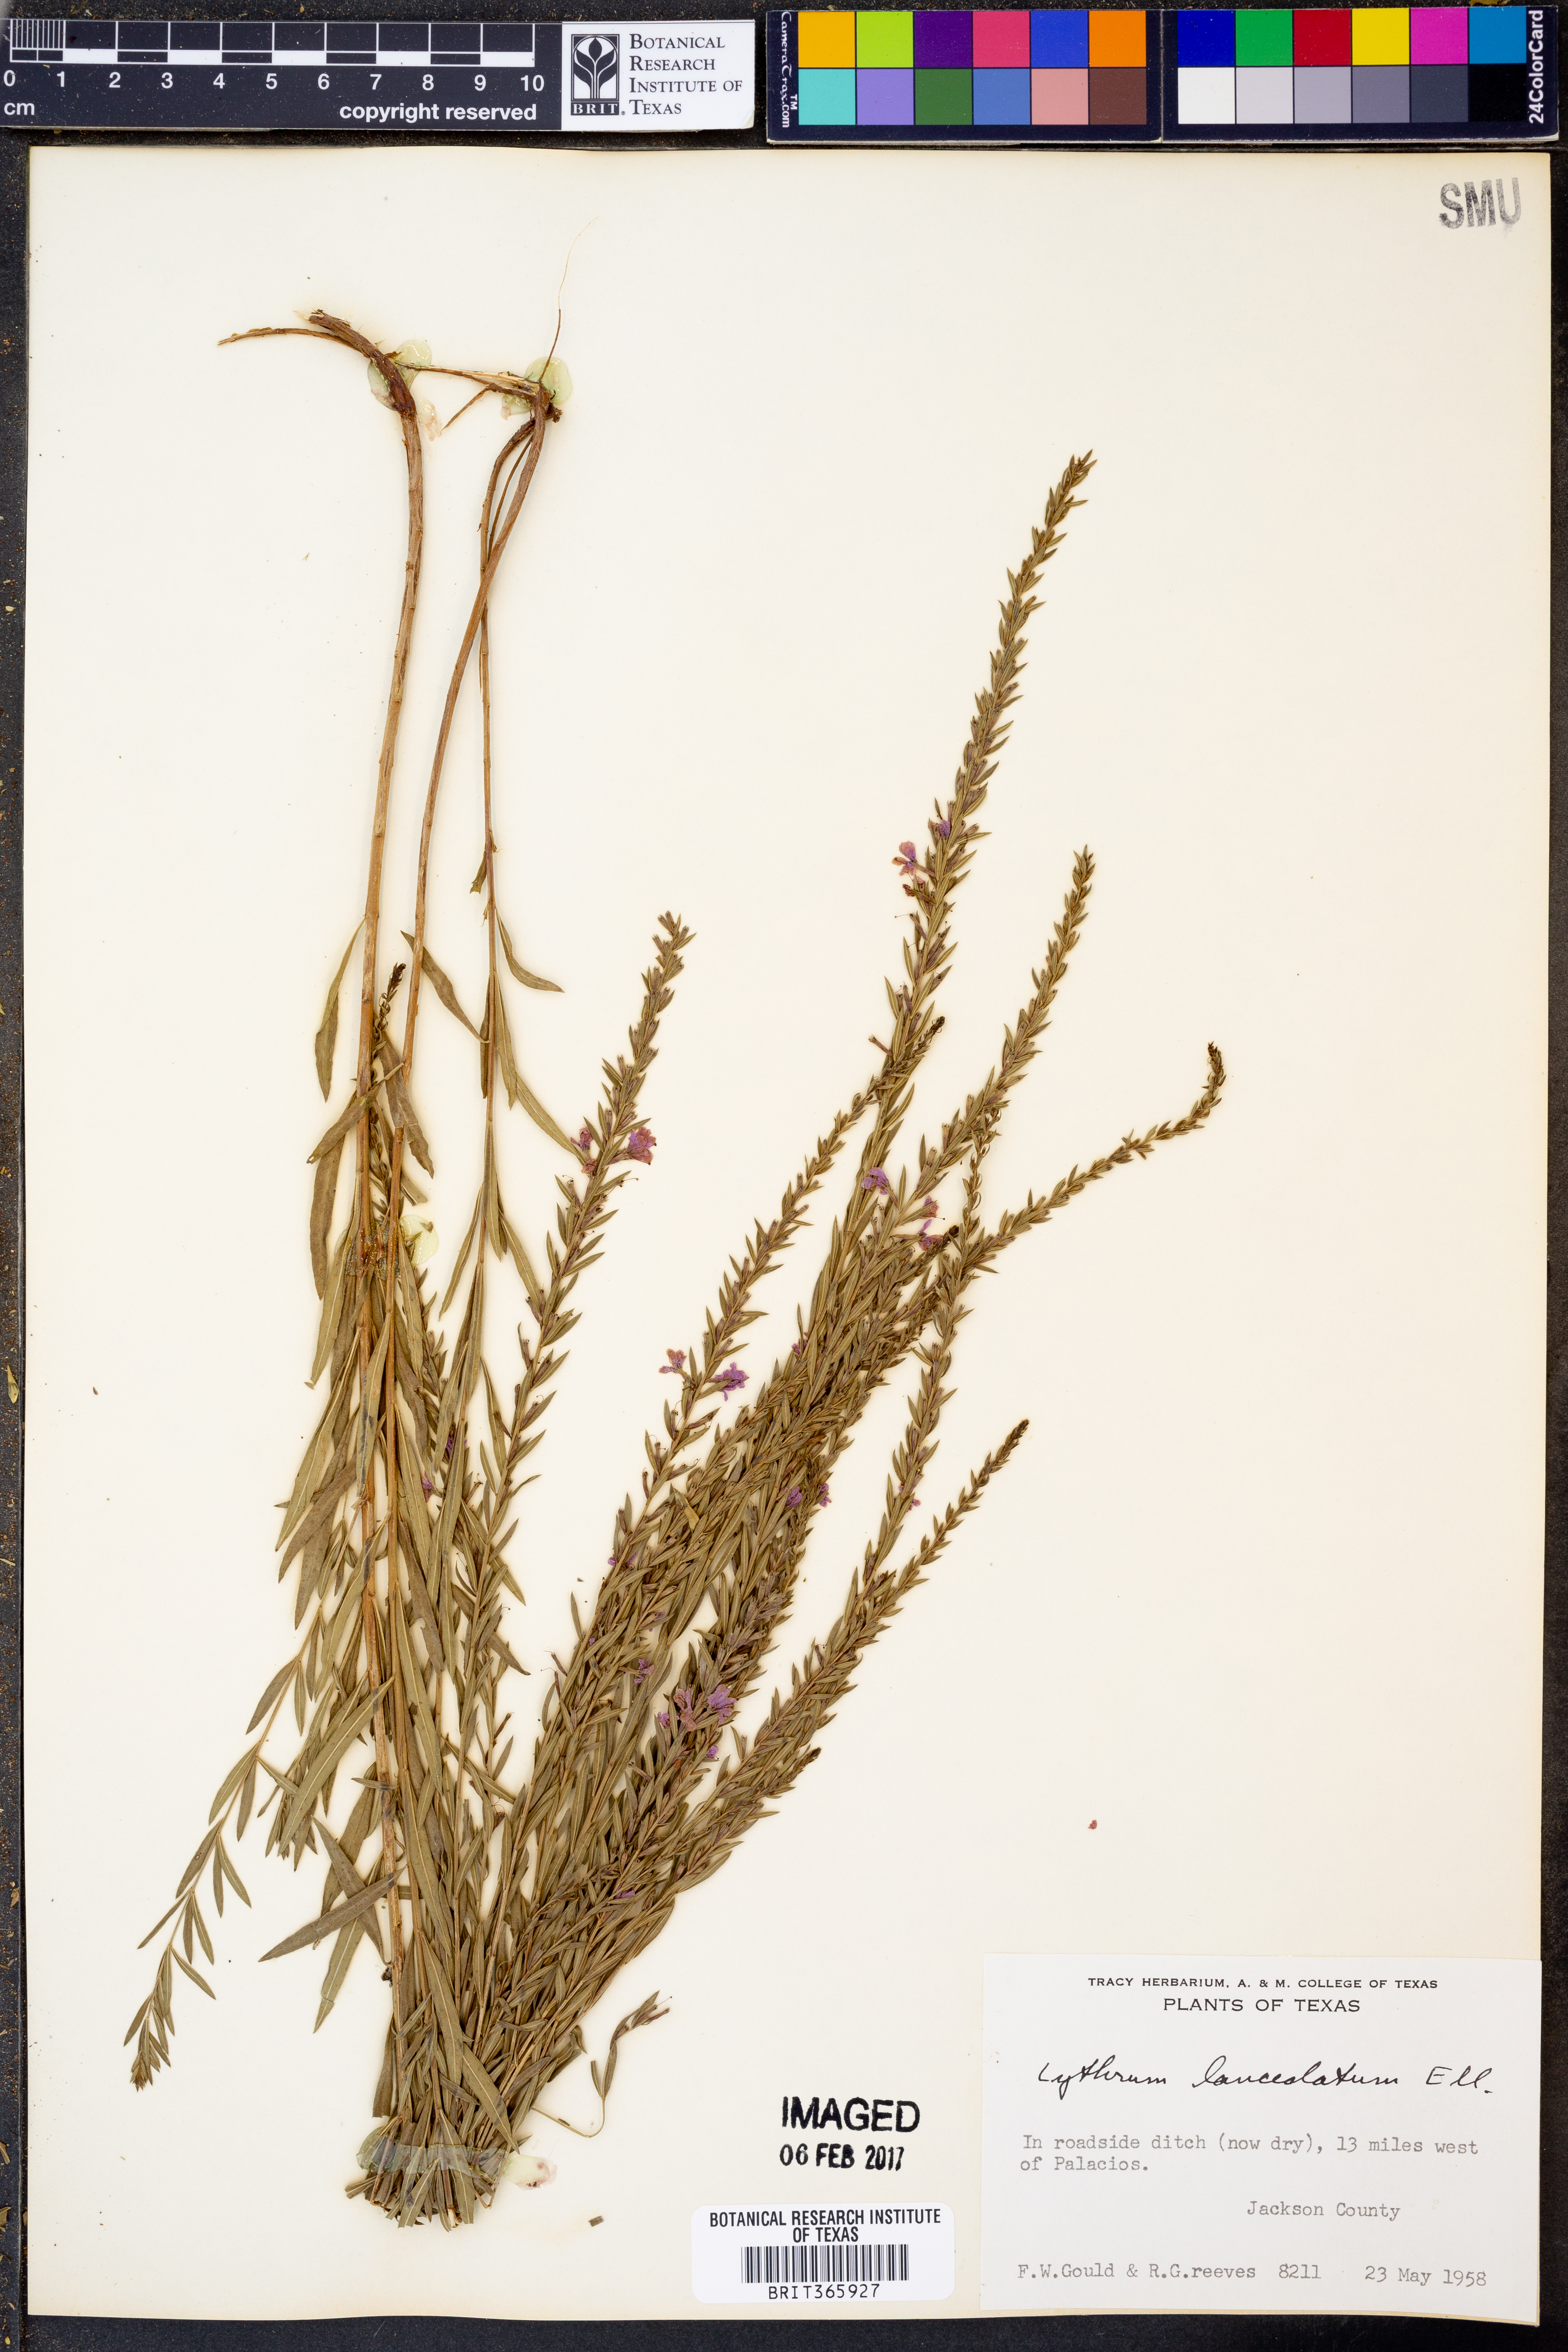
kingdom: Plantae
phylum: Tracheophyta
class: Magnoliopsida
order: Myrtales
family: Lythraceae
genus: Lythrum
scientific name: Lythrum alatum
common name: Winged loosestrife
